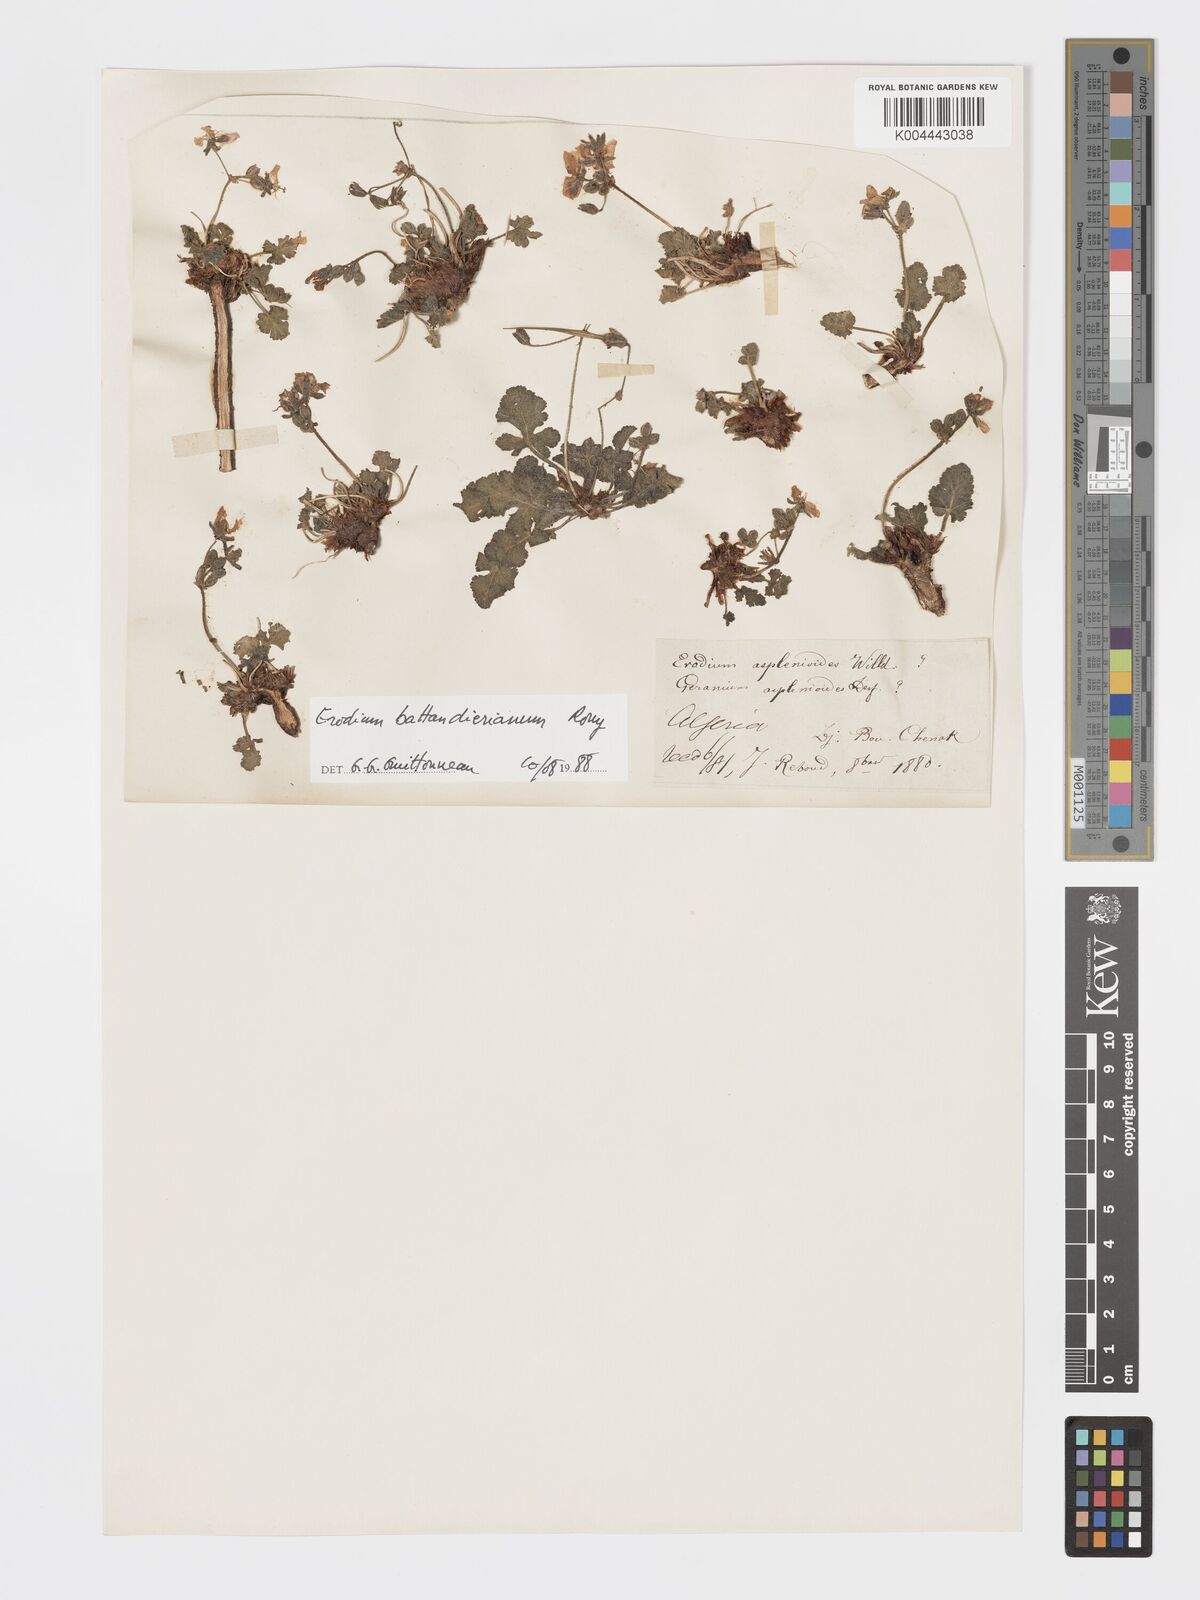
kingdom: Plantae
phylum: Tracheophyta
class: Magnoliopsida
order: Geraniales
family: Geraniaceae
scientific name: Geraniaceae
